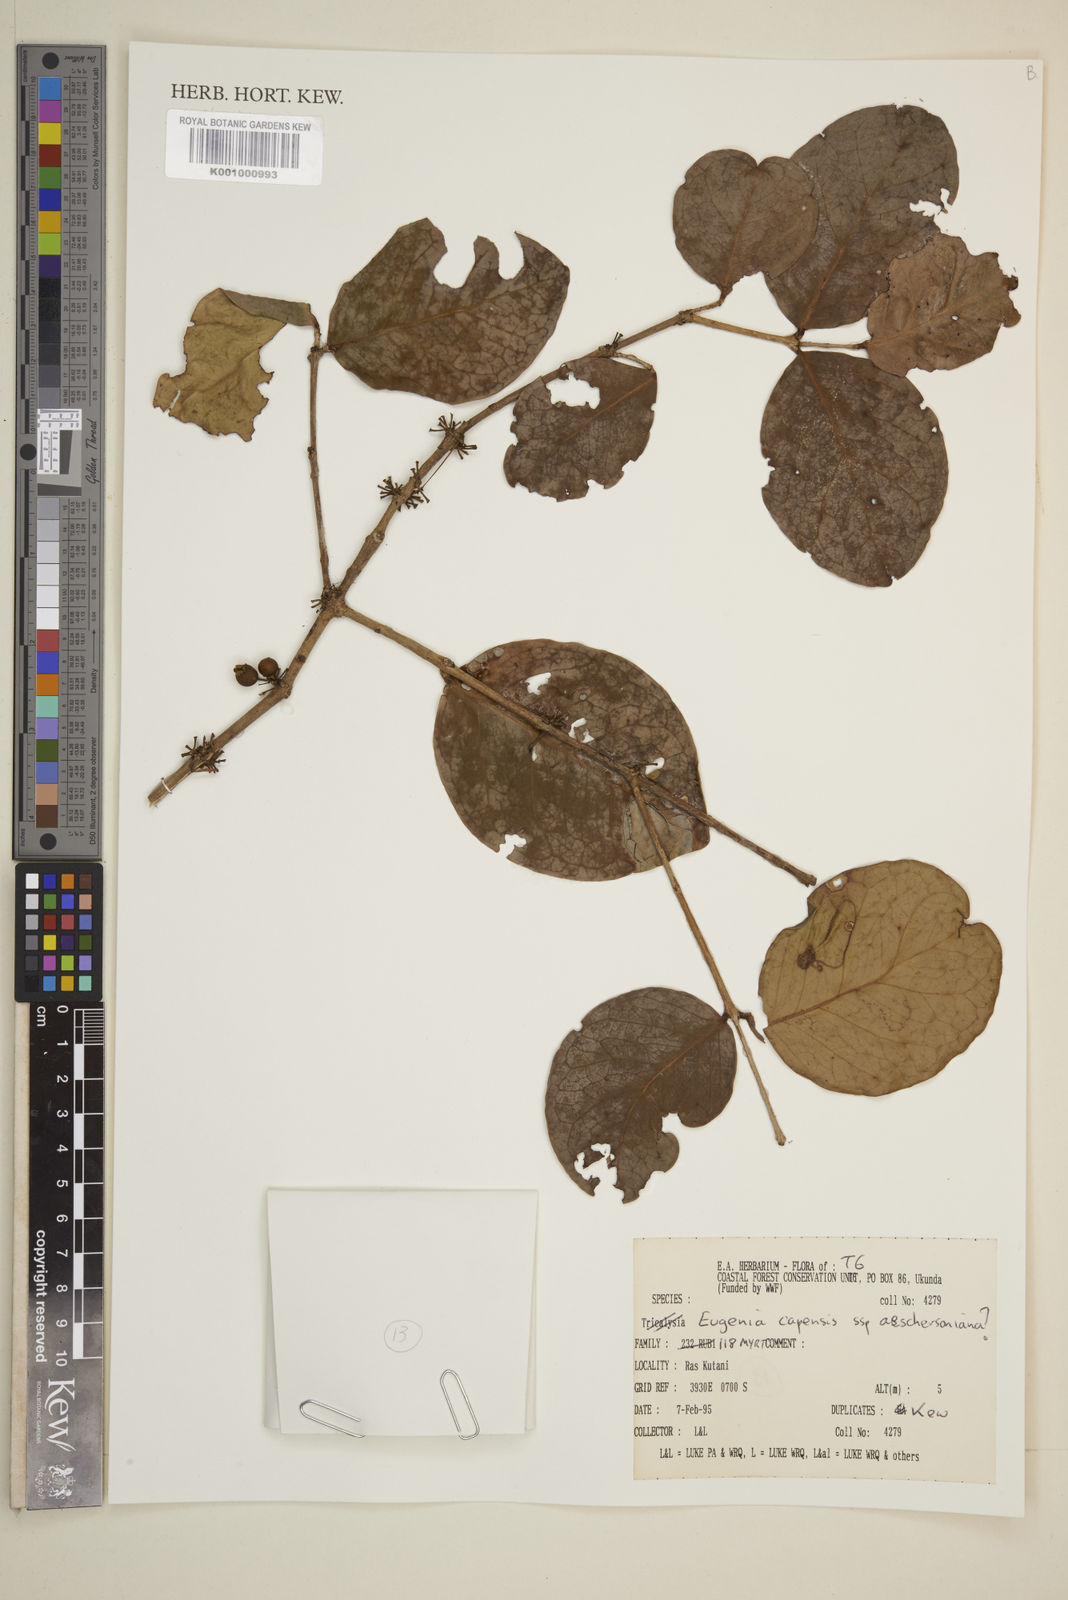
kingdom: Plantae
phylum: Tracheophyta
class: Magnoliopsida
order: Myrtales
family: Myrtaceae
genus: Eugenia
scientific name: Eugenia aschersoniana
